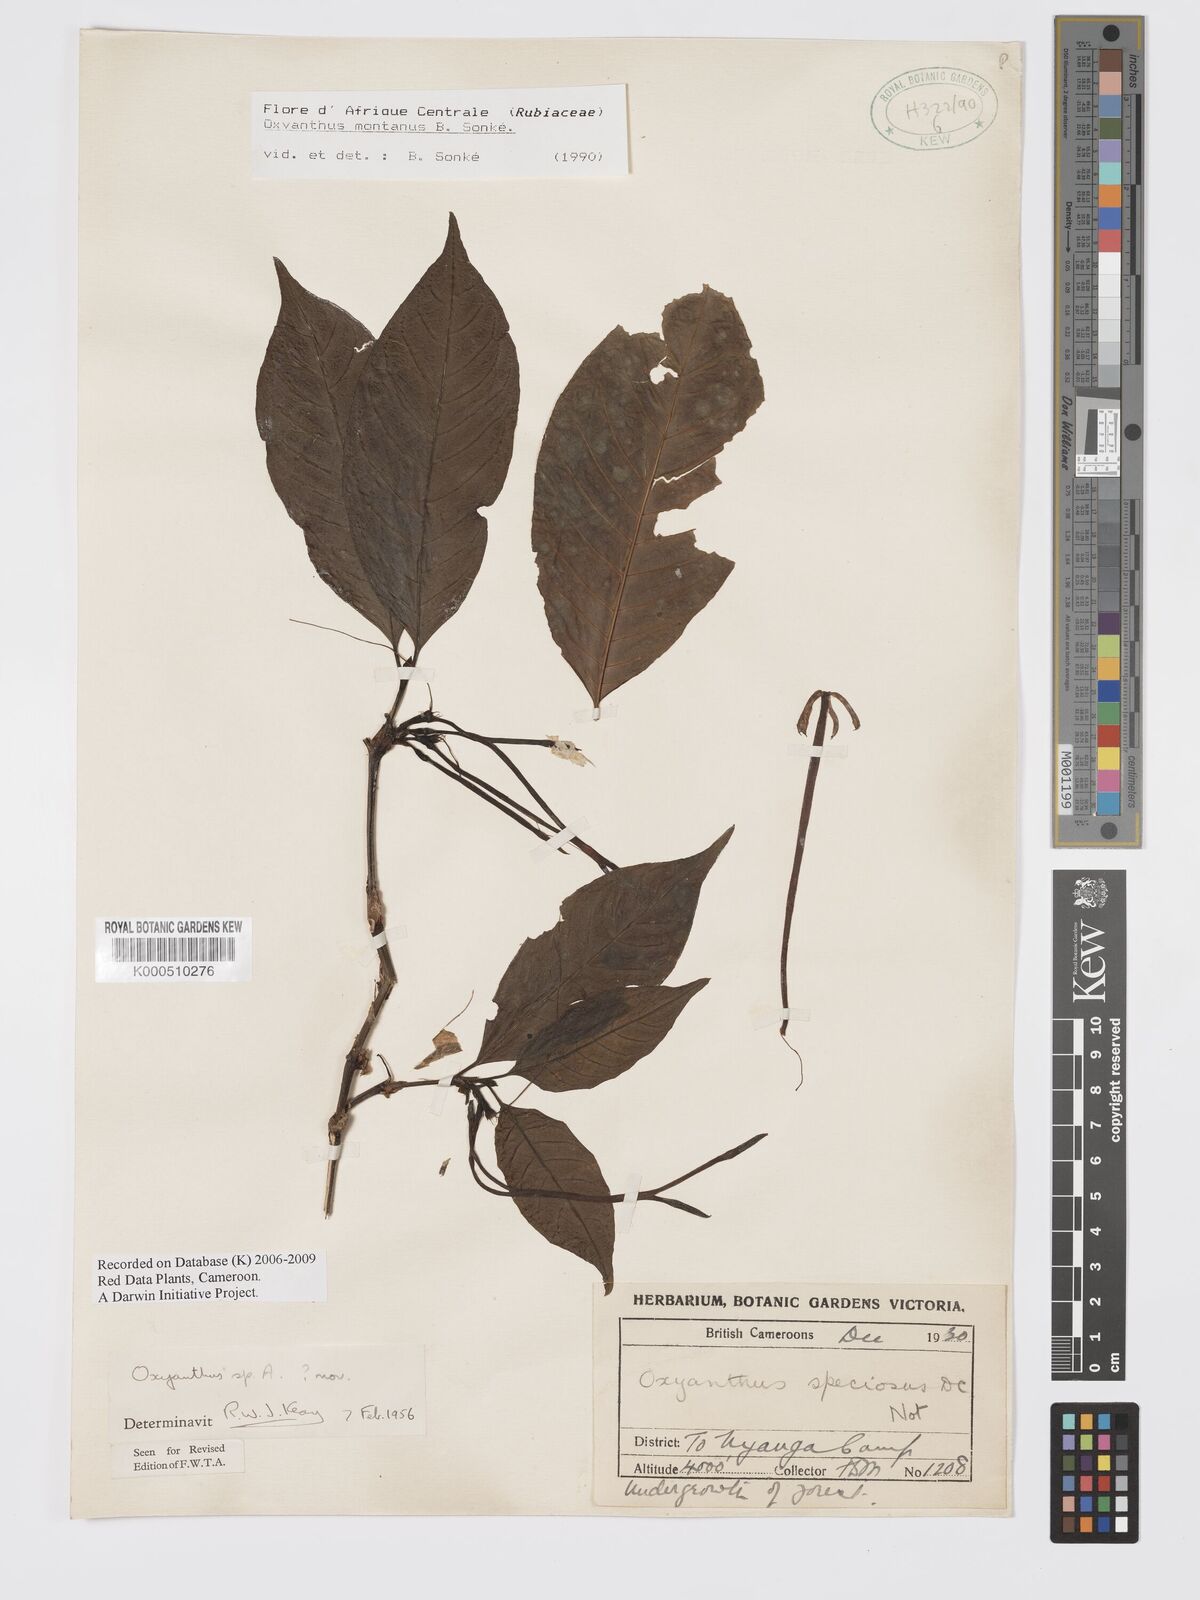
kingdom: Plantae
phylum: Tracheophyta
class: Magnoliopsida
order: Gentianales
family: Rubiaceae
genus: Oxyanthus
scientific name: Oxyanthus
